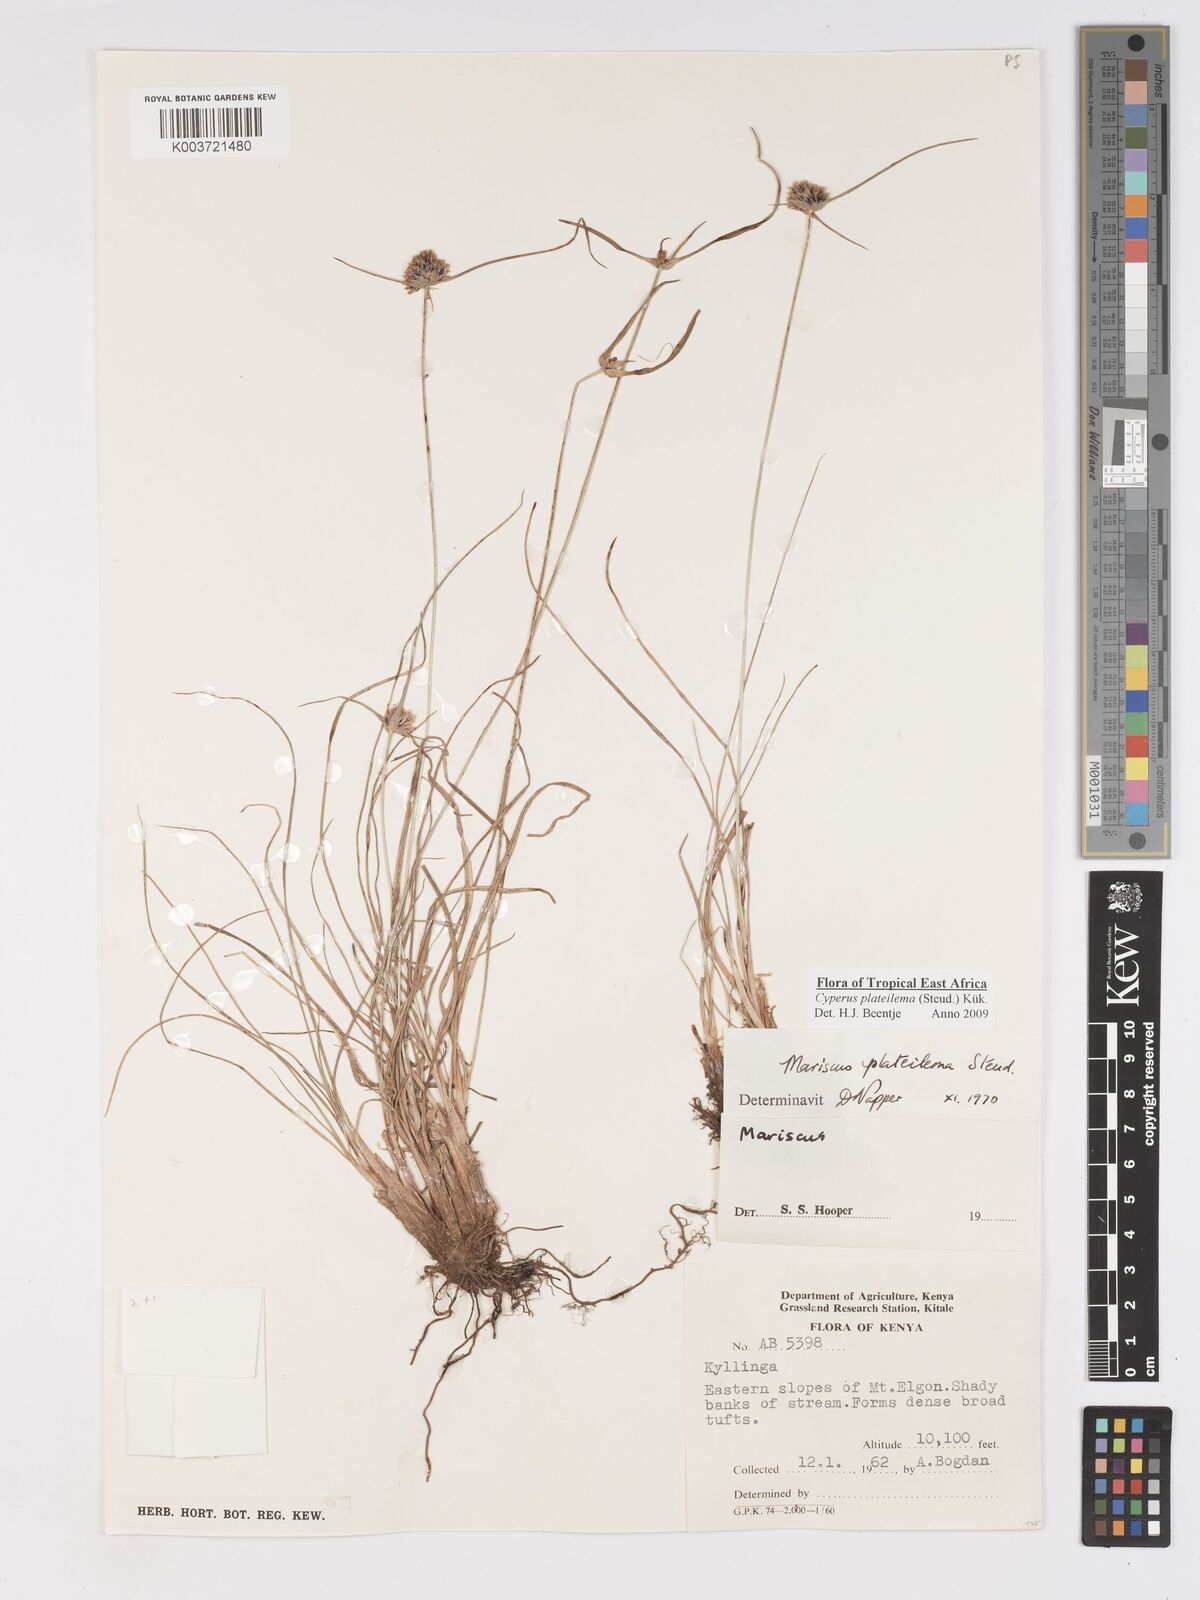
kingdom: Plantae
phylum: Tracheophyta
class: Liliopsida
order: Poales
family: Cyperaceae
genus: Cyperus
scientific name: Cyperus plateilema
